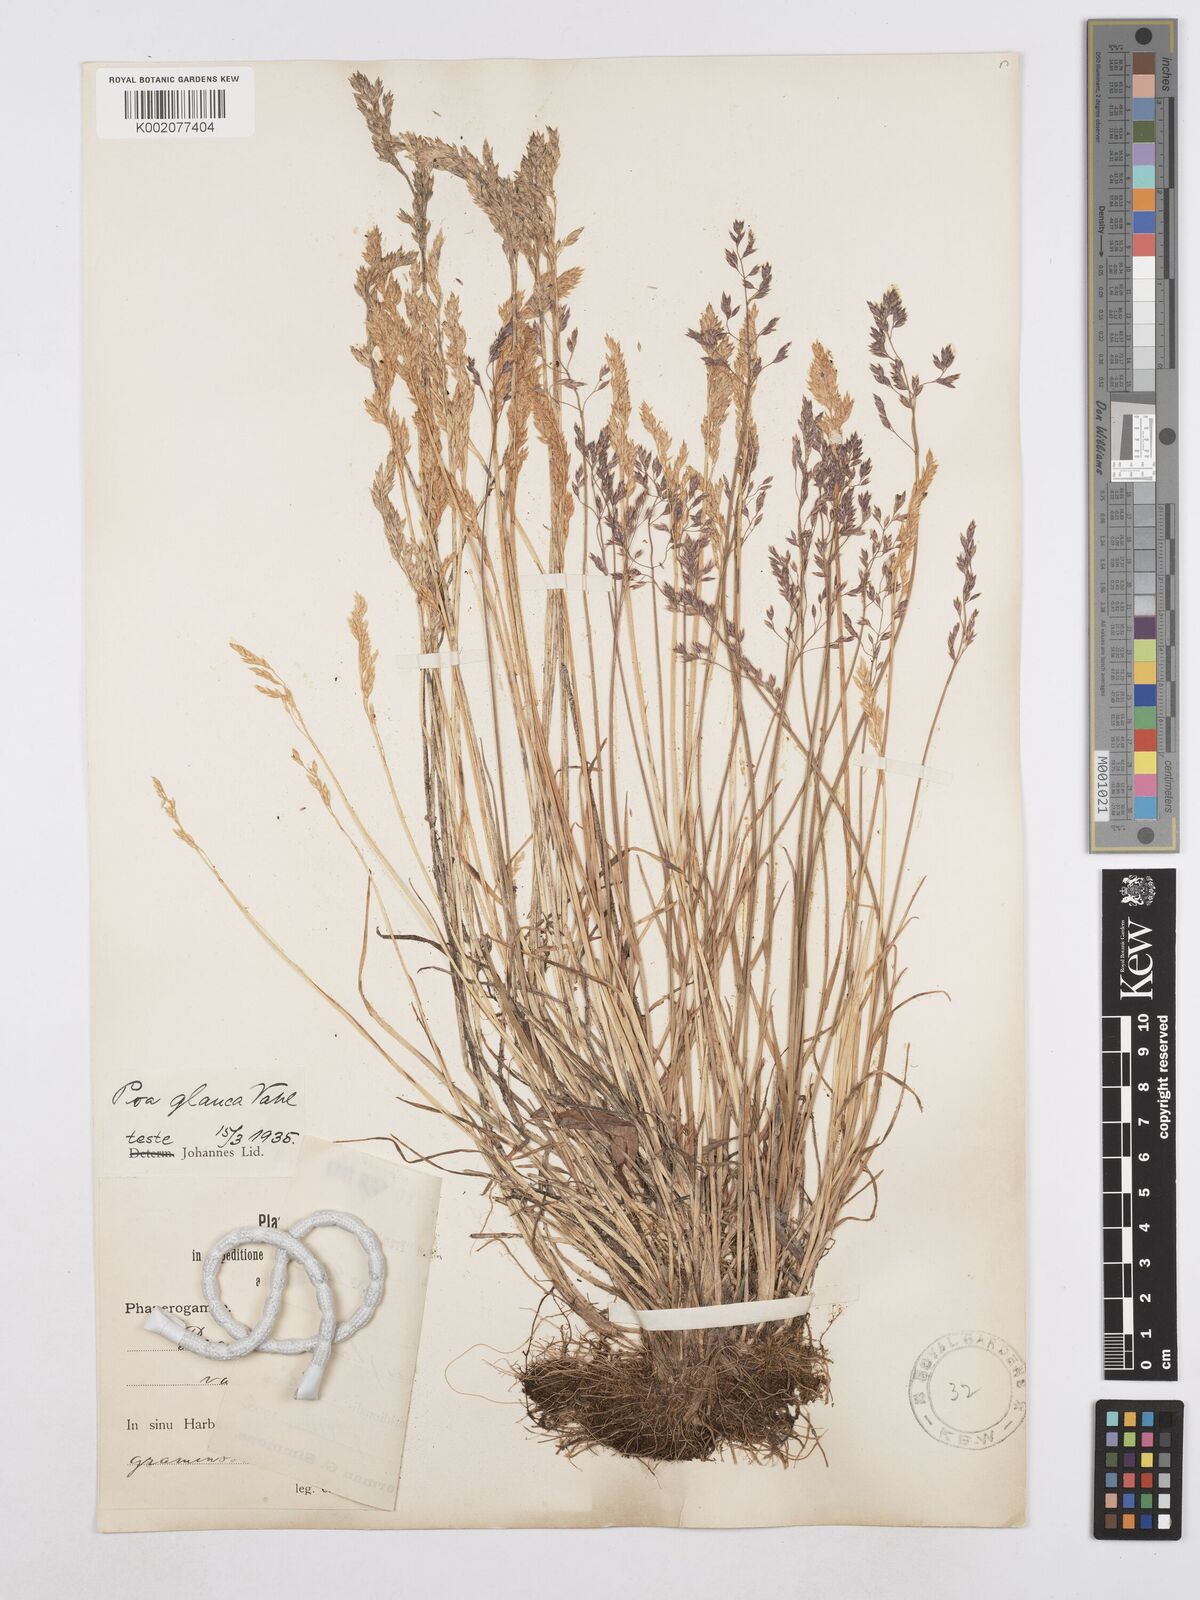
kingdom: Plantae
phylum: Tracheophyta
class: Liliopsida
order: Poales
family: Poaceae
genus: Poa
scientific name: Poa glauca
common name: Glaucous bluegrass
